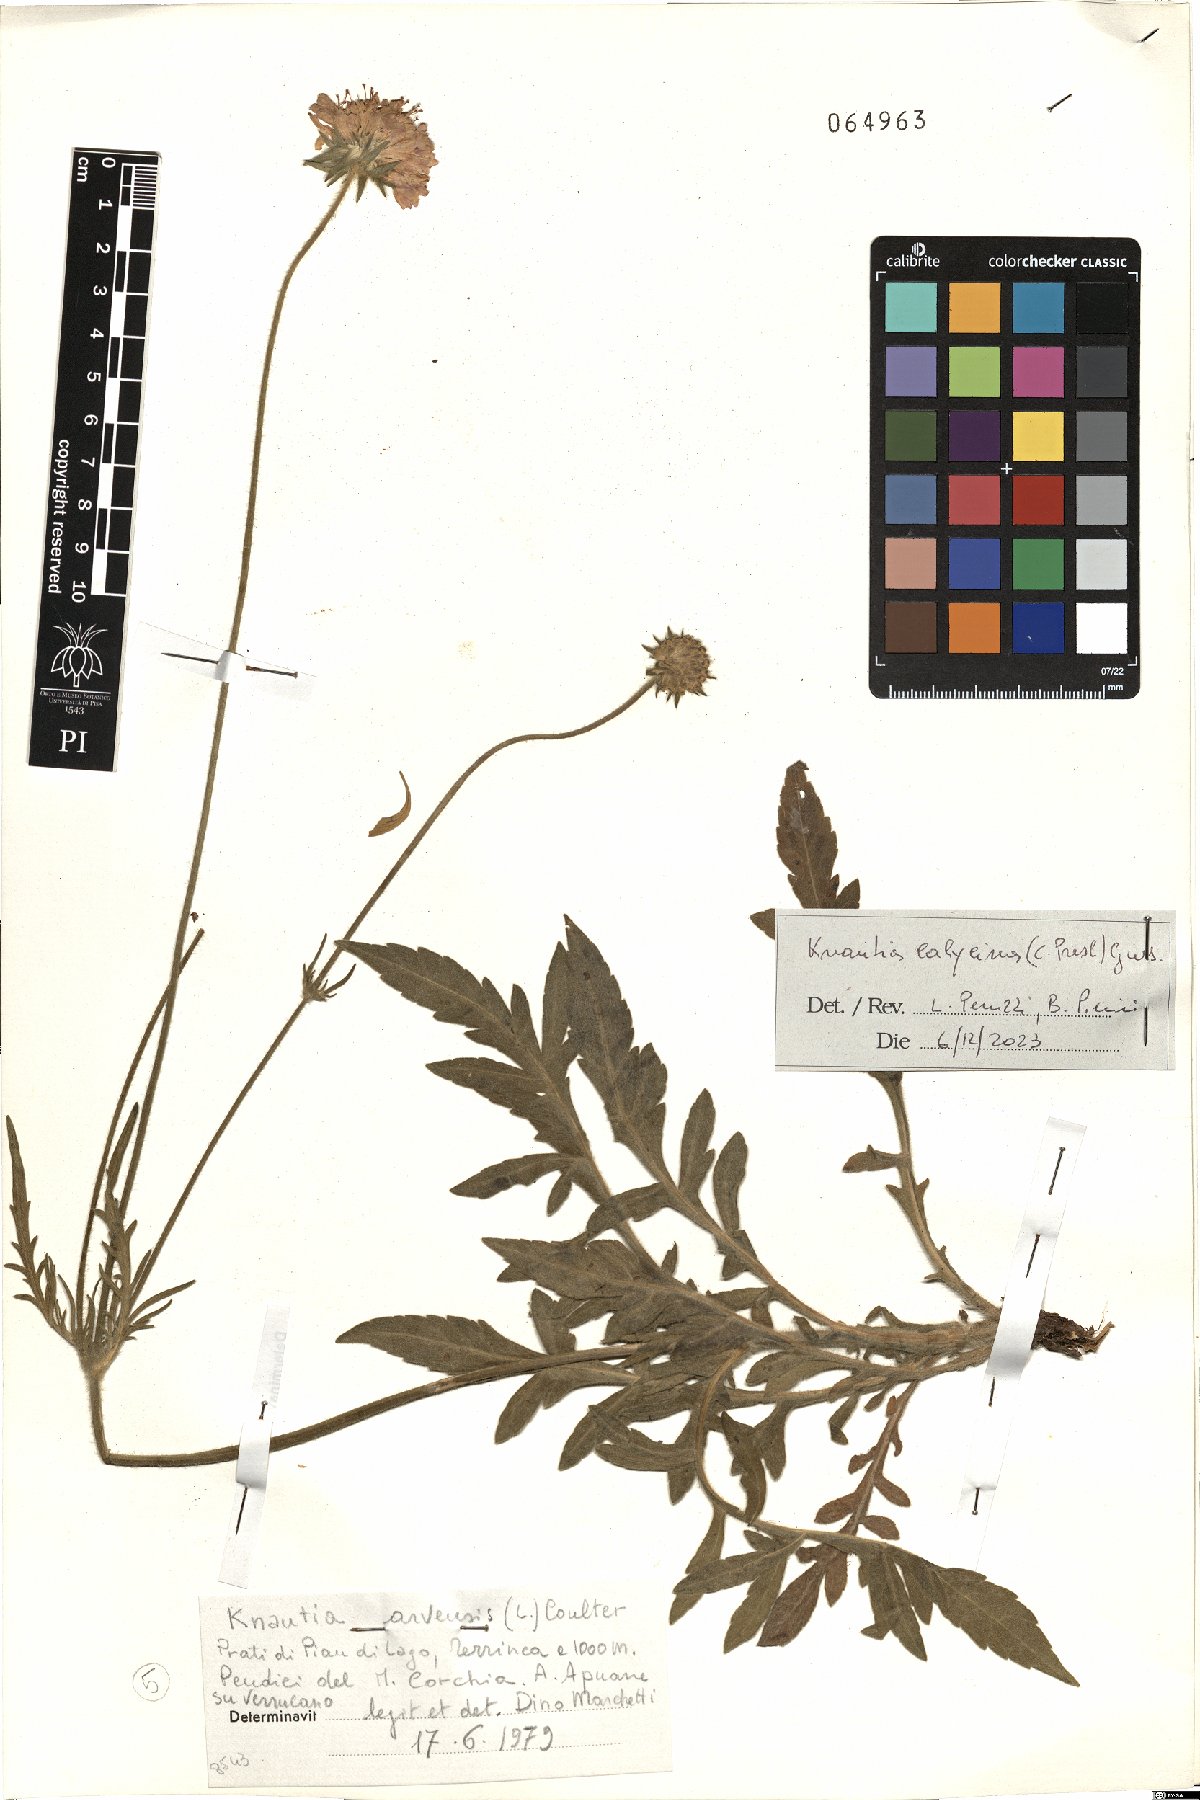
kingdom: Plantae
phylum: Tracheophyta
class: Magnoliopsida
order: Dipsacales
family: Caprifoliaceae
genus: Knautia
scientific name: Knautia calycina
